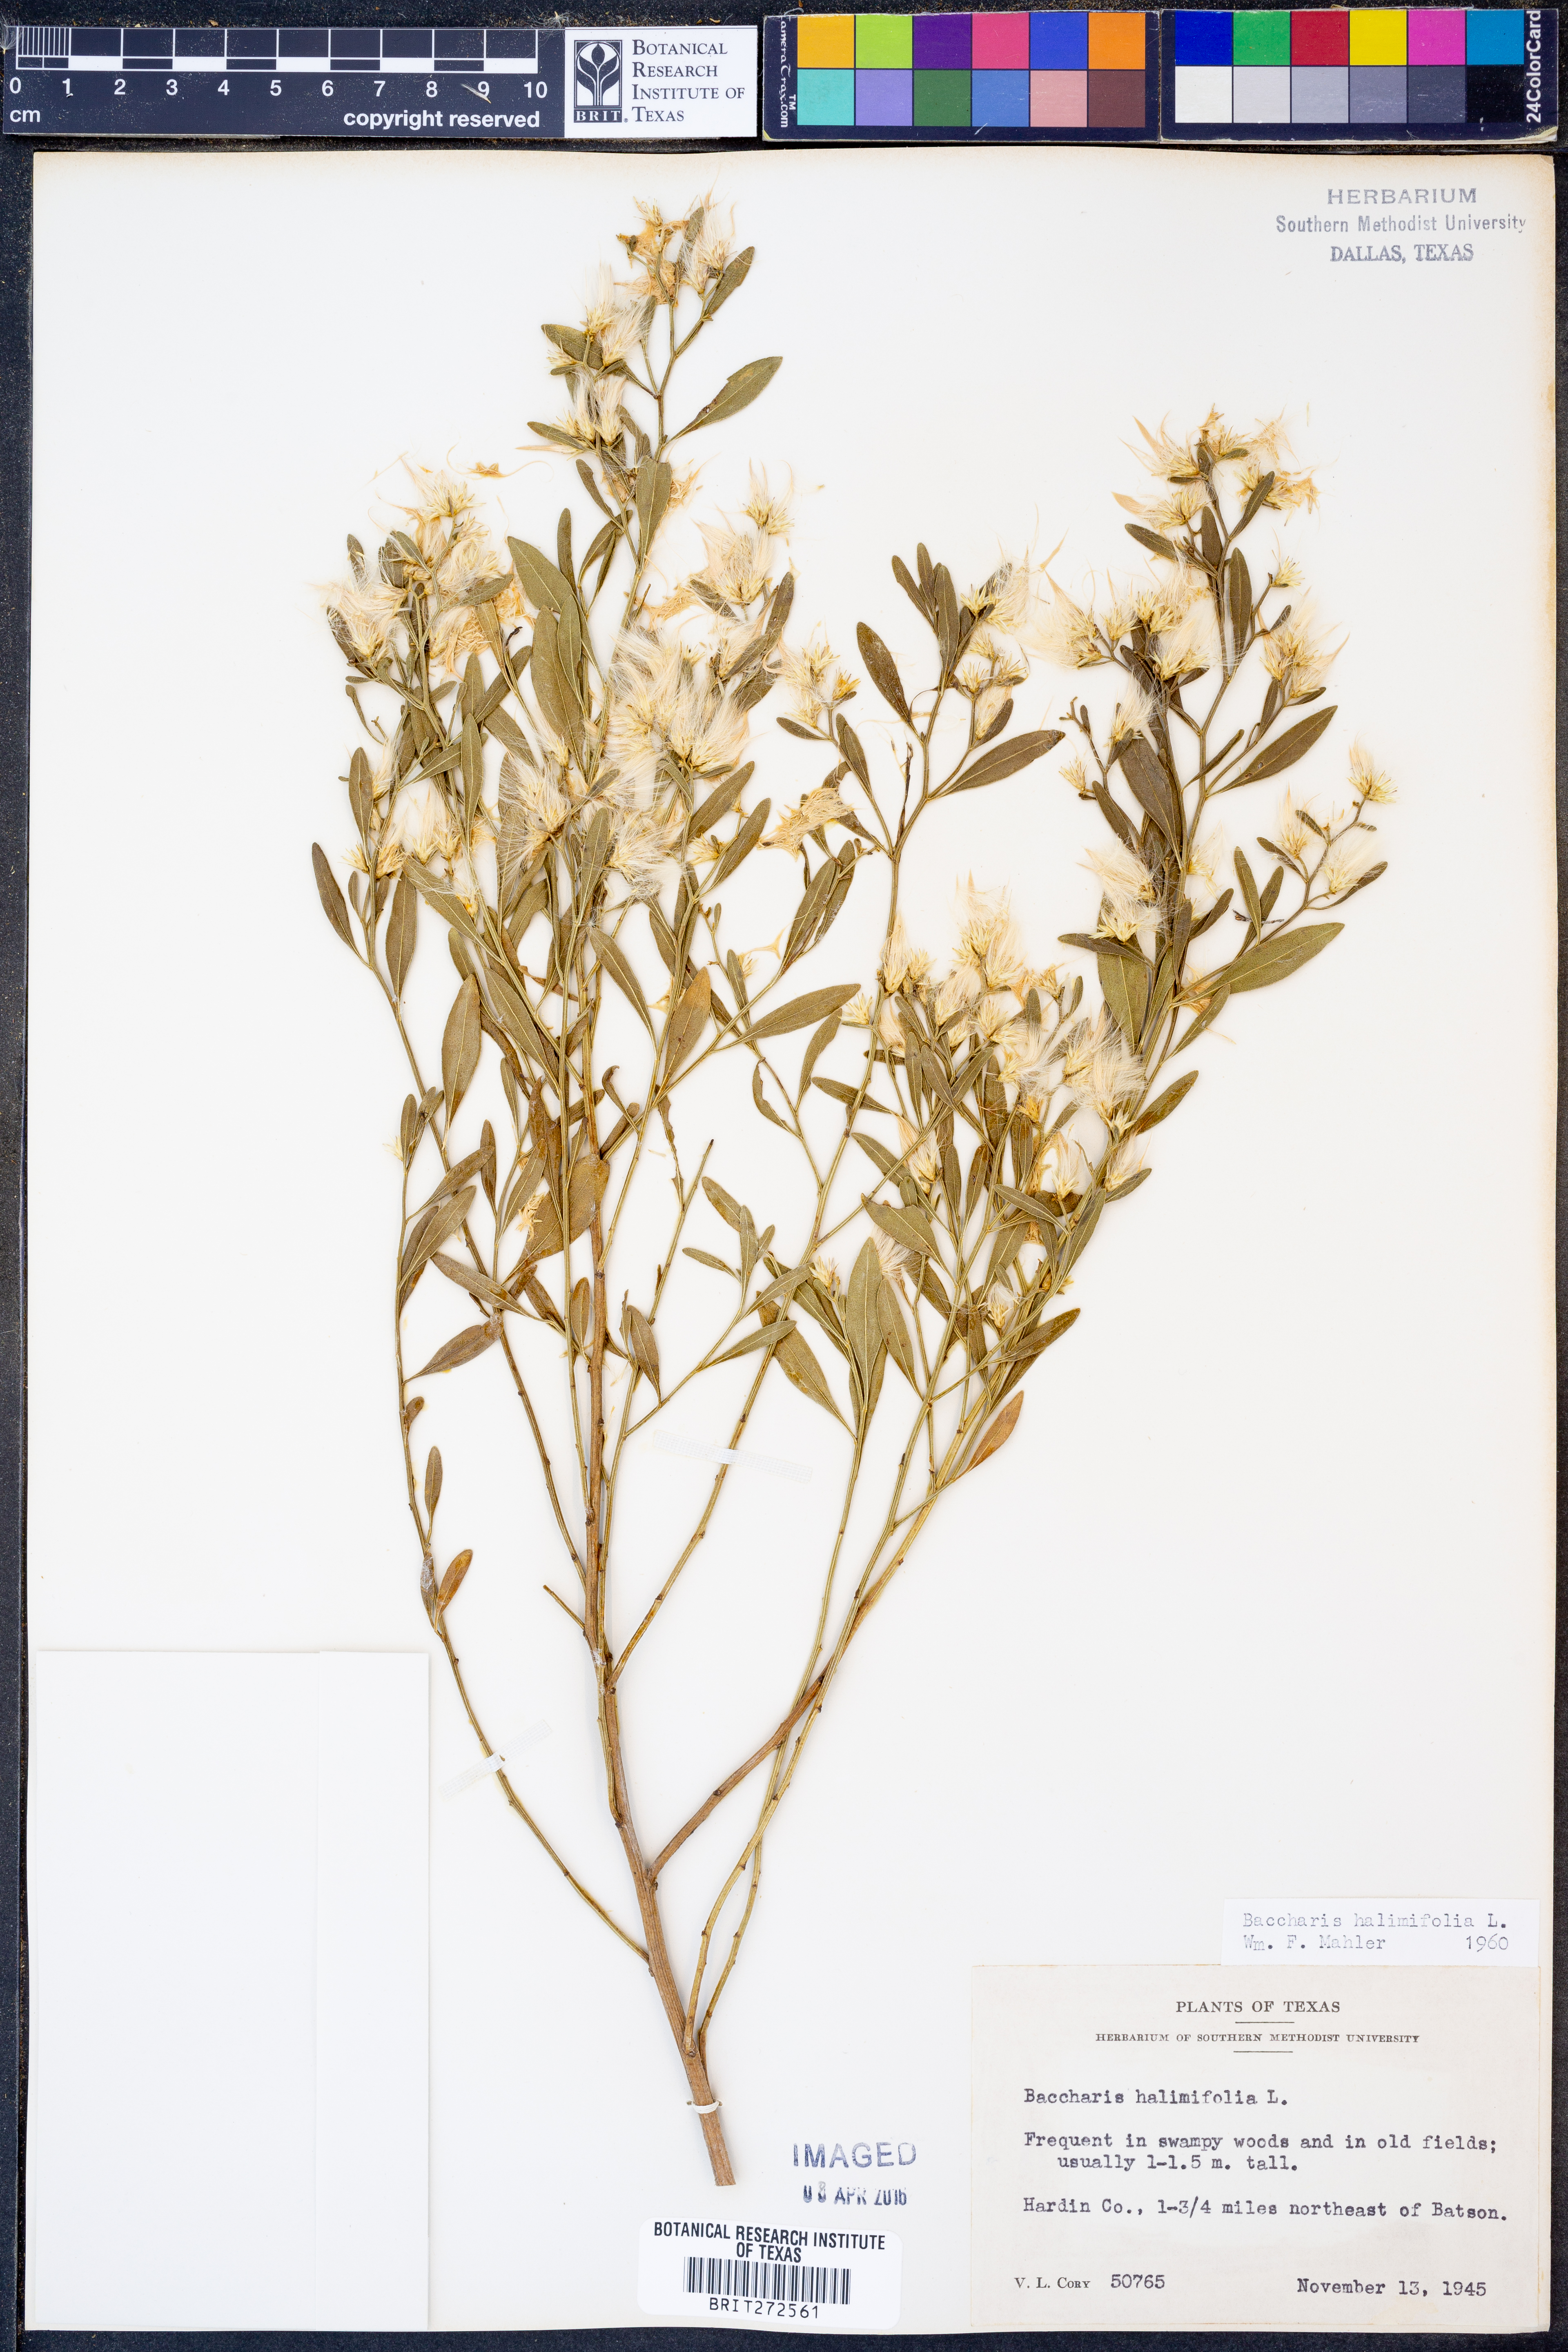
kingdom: Plantae
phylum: Tracheophyta
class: Magnoliopsida
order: Asterales
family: Asteraceae
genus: Nidorella
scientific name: Nidorella ivifolia
